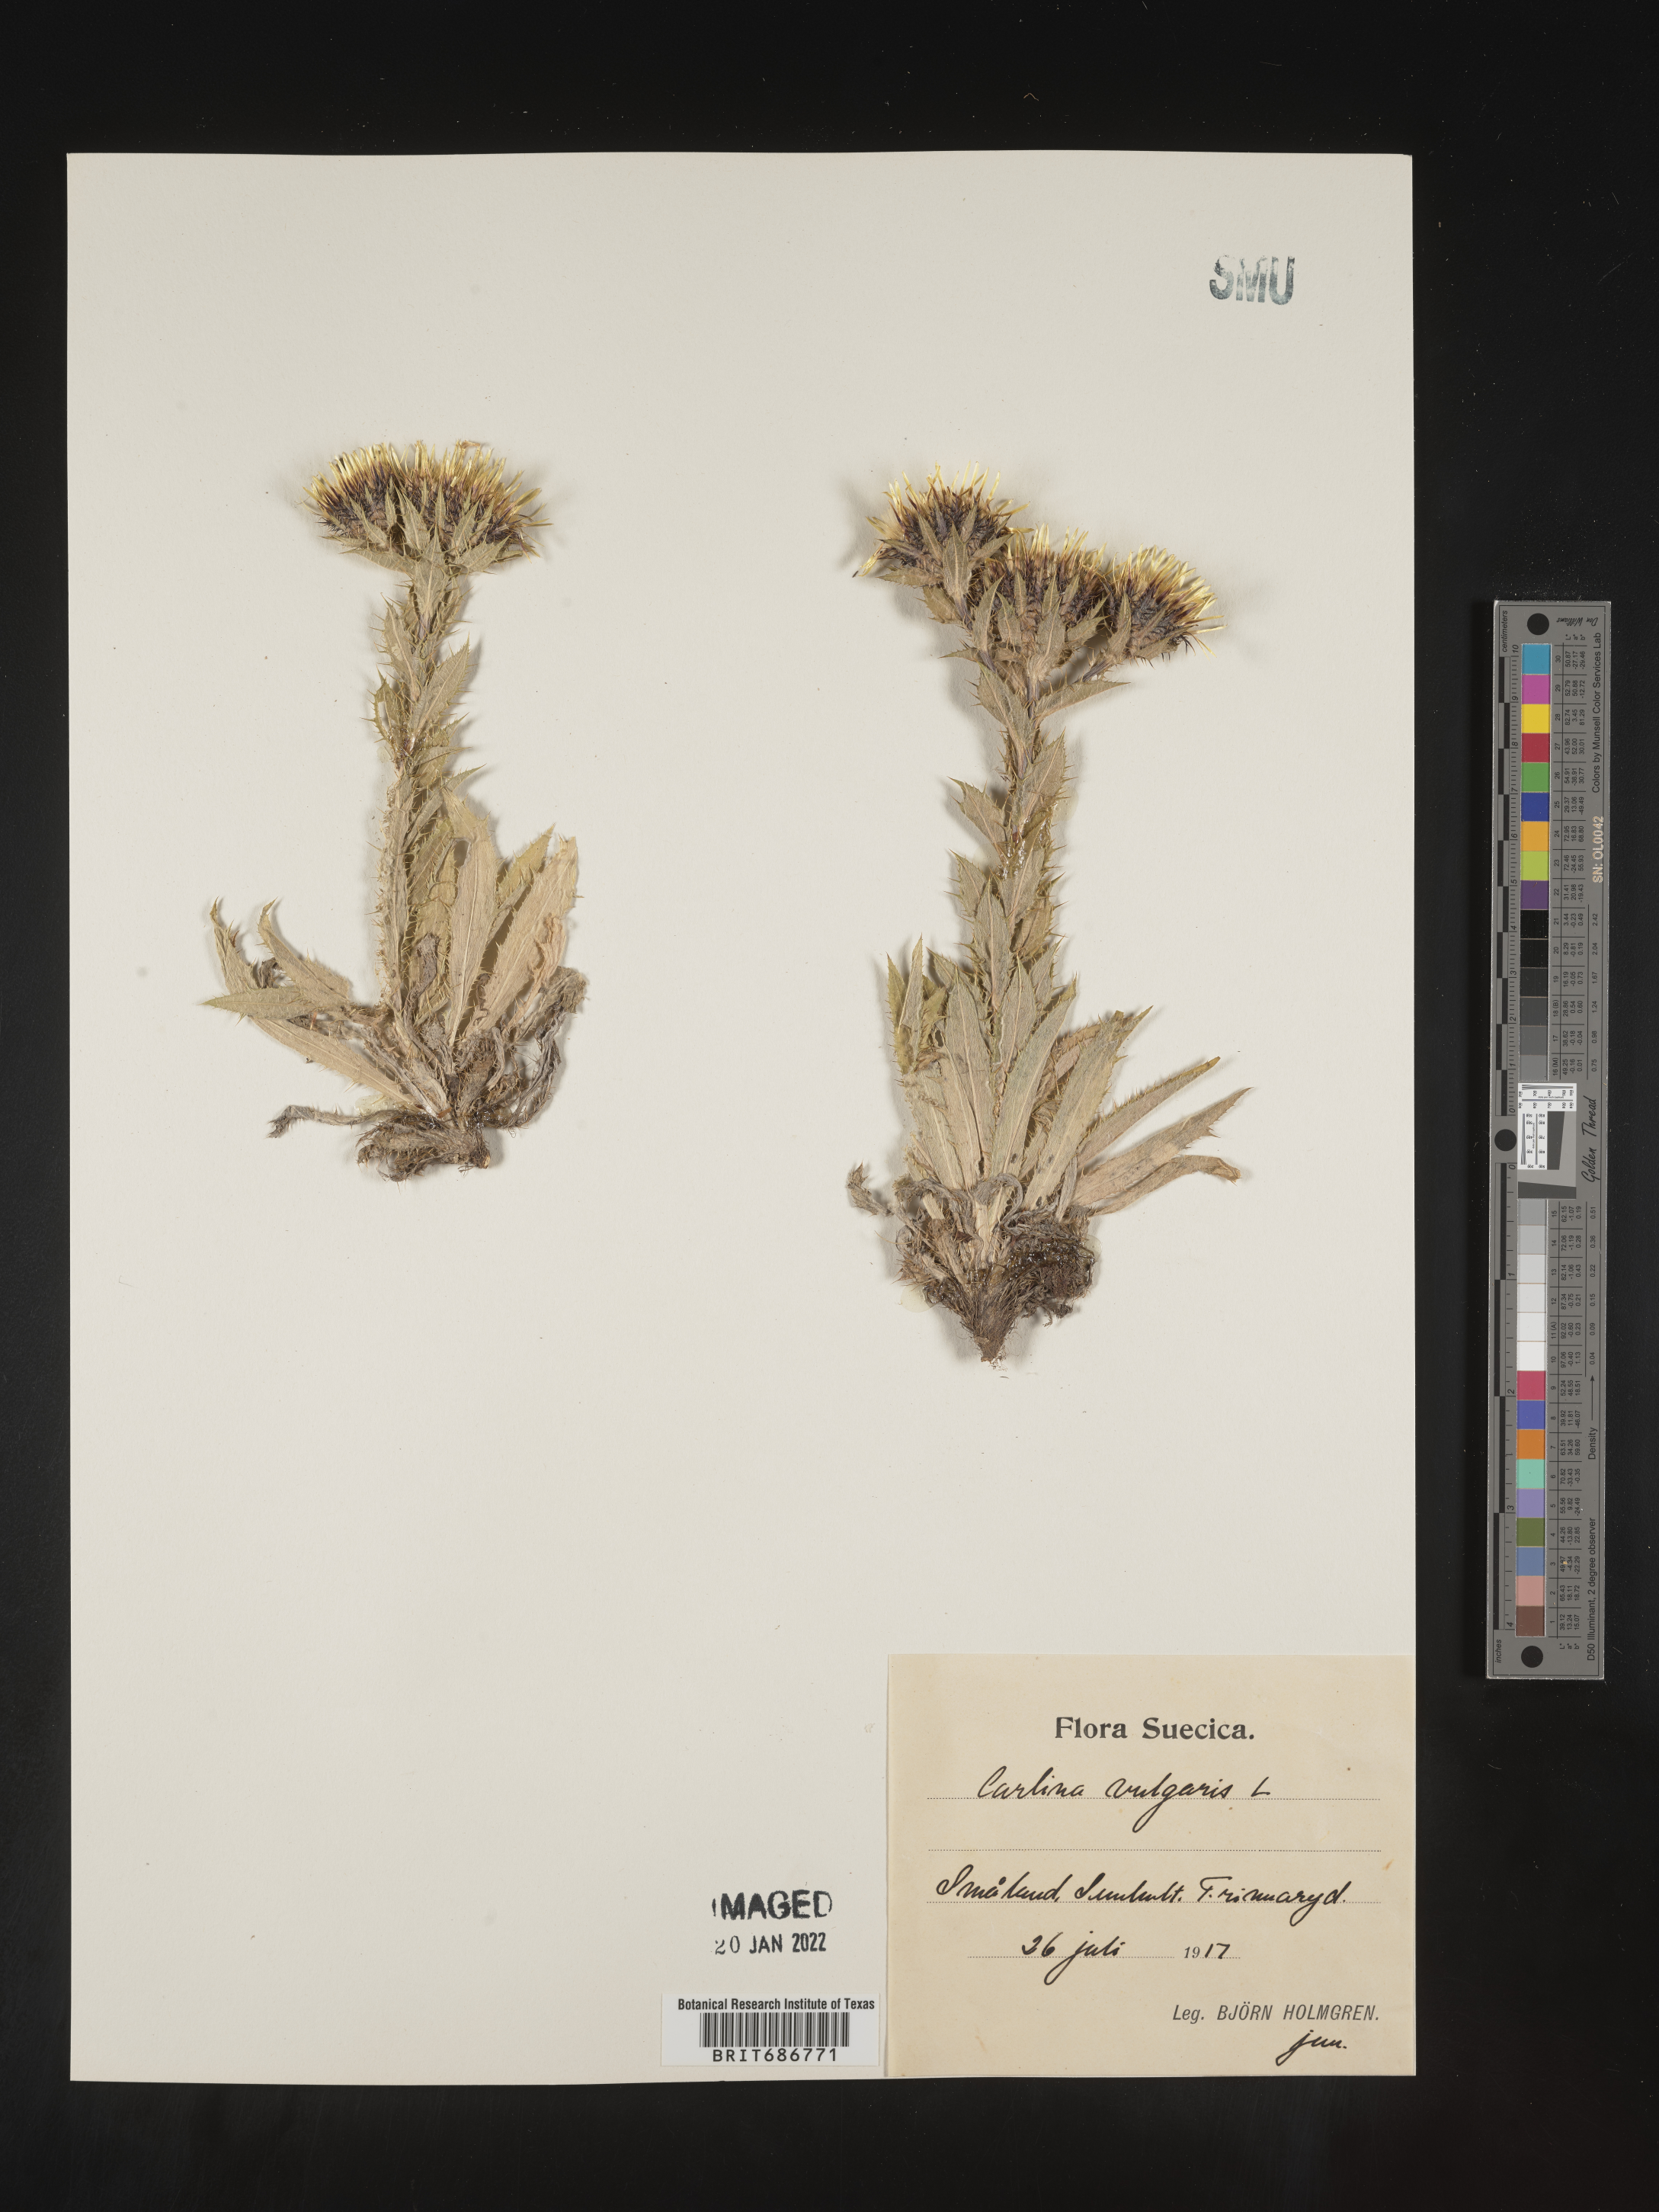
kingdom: Plantae
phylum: Tracheophyta
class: Magnoliopsida
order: Asterales
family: Asteraceae
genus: Carlina
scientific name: Carlina
